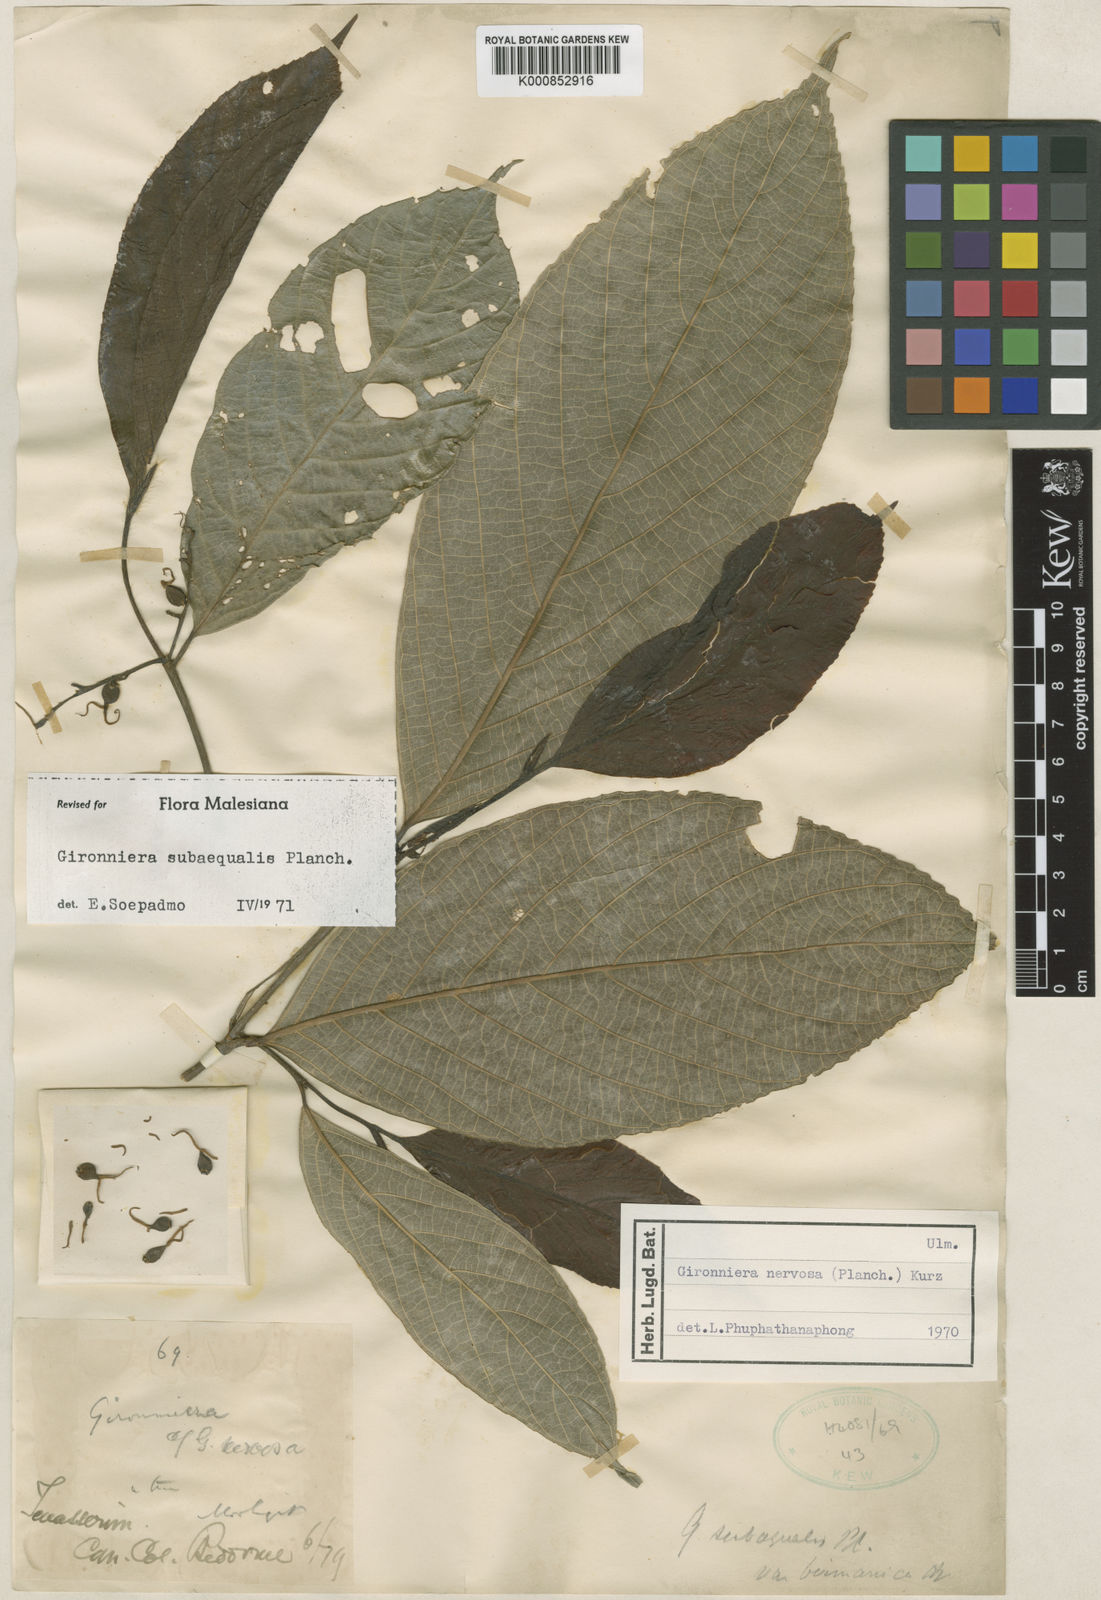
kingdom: Plantae
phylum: Tracheophyta
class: Magnoliopsida
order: Rosales
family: Cannabaceae
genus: Gironniera
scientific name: Gironniera subaequalis
